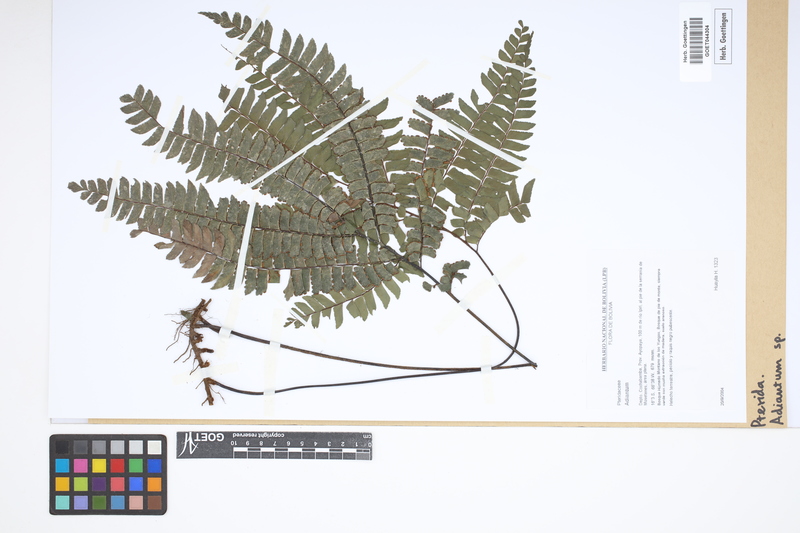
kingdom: Plantae
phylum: Tracheophyta
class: Polypodiopsida
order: Polypodiales
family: Pteridaceae
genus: Adiantum
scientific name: Adiantum
